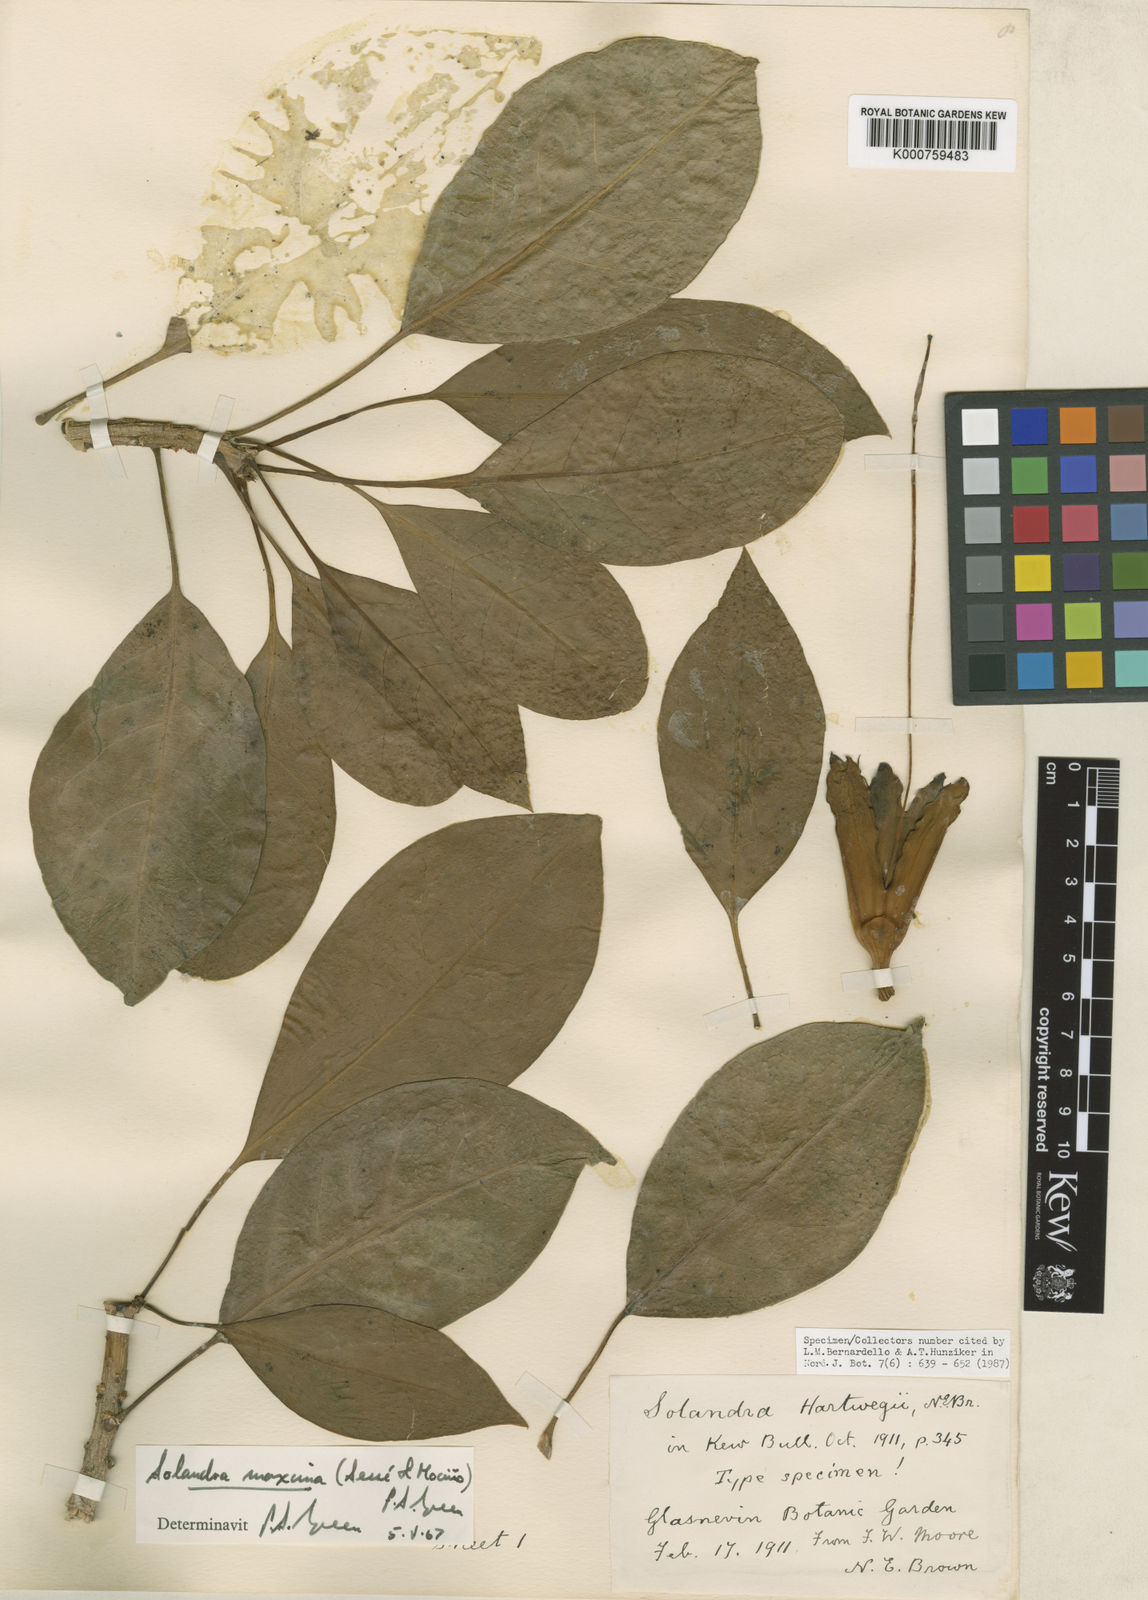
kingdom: Plantae
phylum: Tracheophyta
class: Magnoliopsida
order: Solanales
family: Solanaceae
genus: Solandra
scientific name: Solandra
